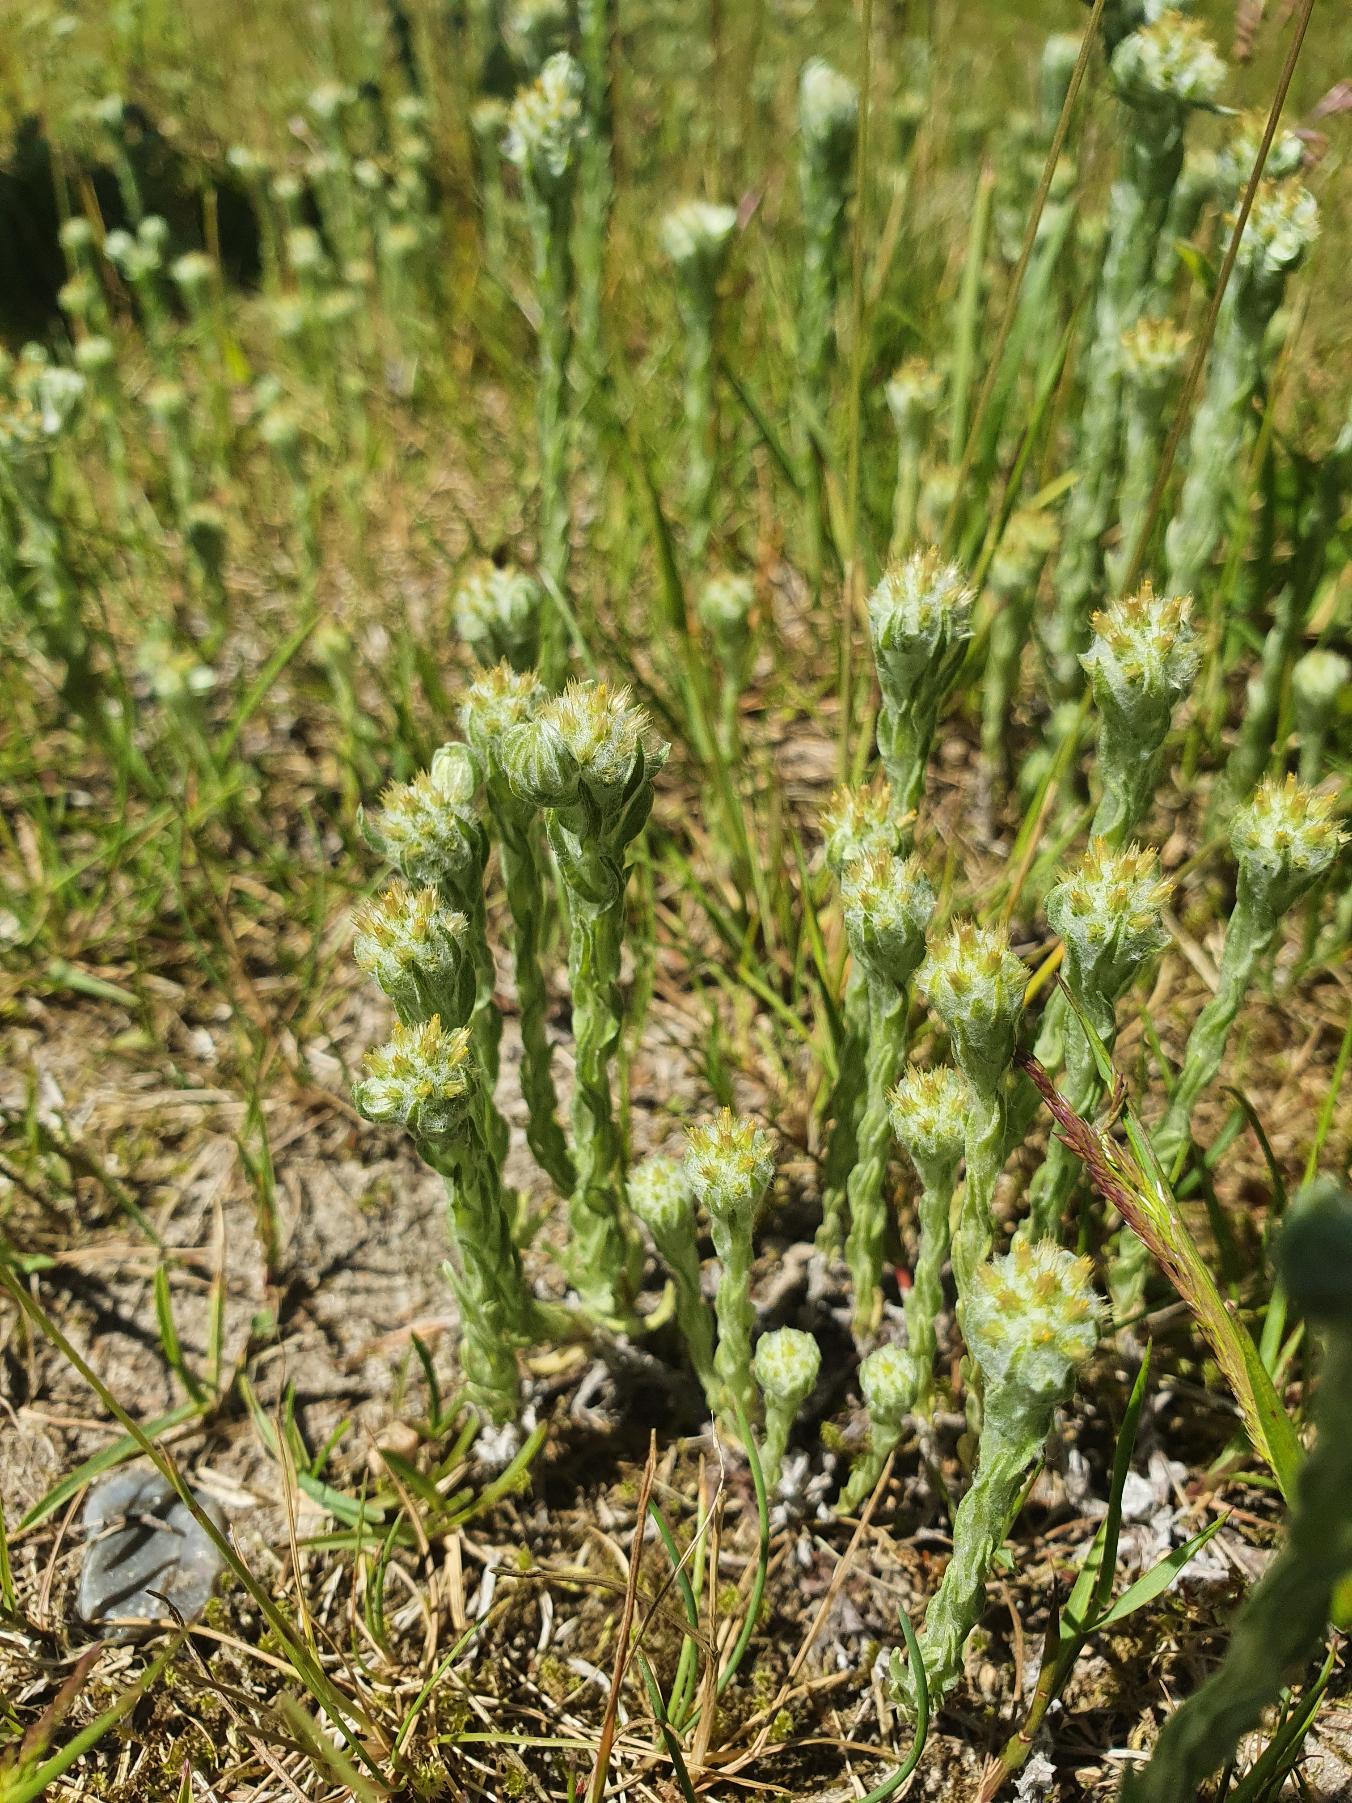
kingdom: Plantae
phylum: Tracheophyta
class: Magnoliopsida
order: Asterales
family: Asteraceae
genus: Filago
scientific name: Filago germanica
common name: Kugle-museurt
